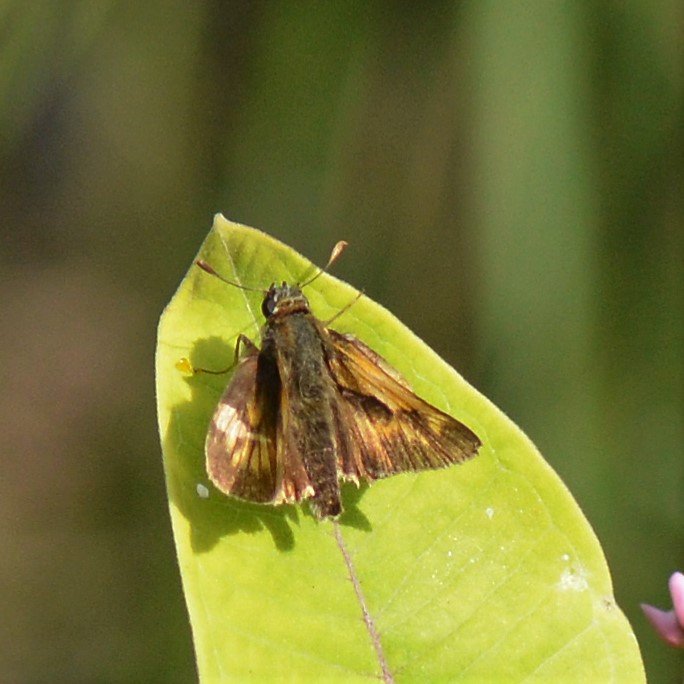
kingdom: Animalia
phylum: Arthropoda
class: Insecta
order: Lepidoptera
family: Hesperiidae
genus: Polites
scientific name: Polites
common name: Long Dash Skipper
